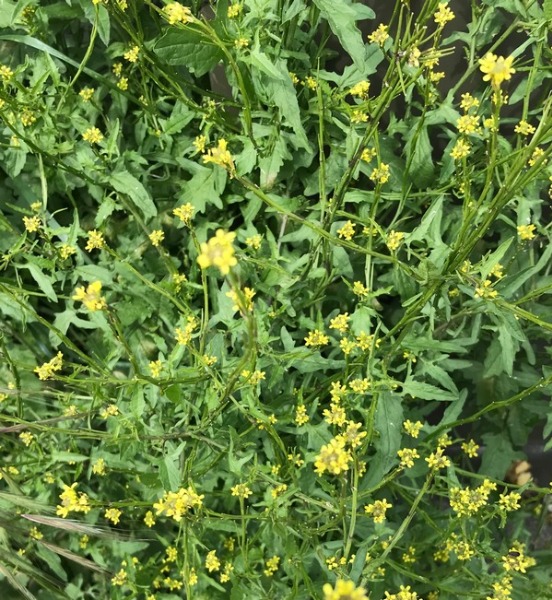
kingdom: Plantae
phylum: Tracheophyta
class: Magnoliopsida
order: Brassicales
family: Brassicaceae
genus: Sisymbrium
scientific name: Sisymbrium officinale
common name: Rank vejsennep
